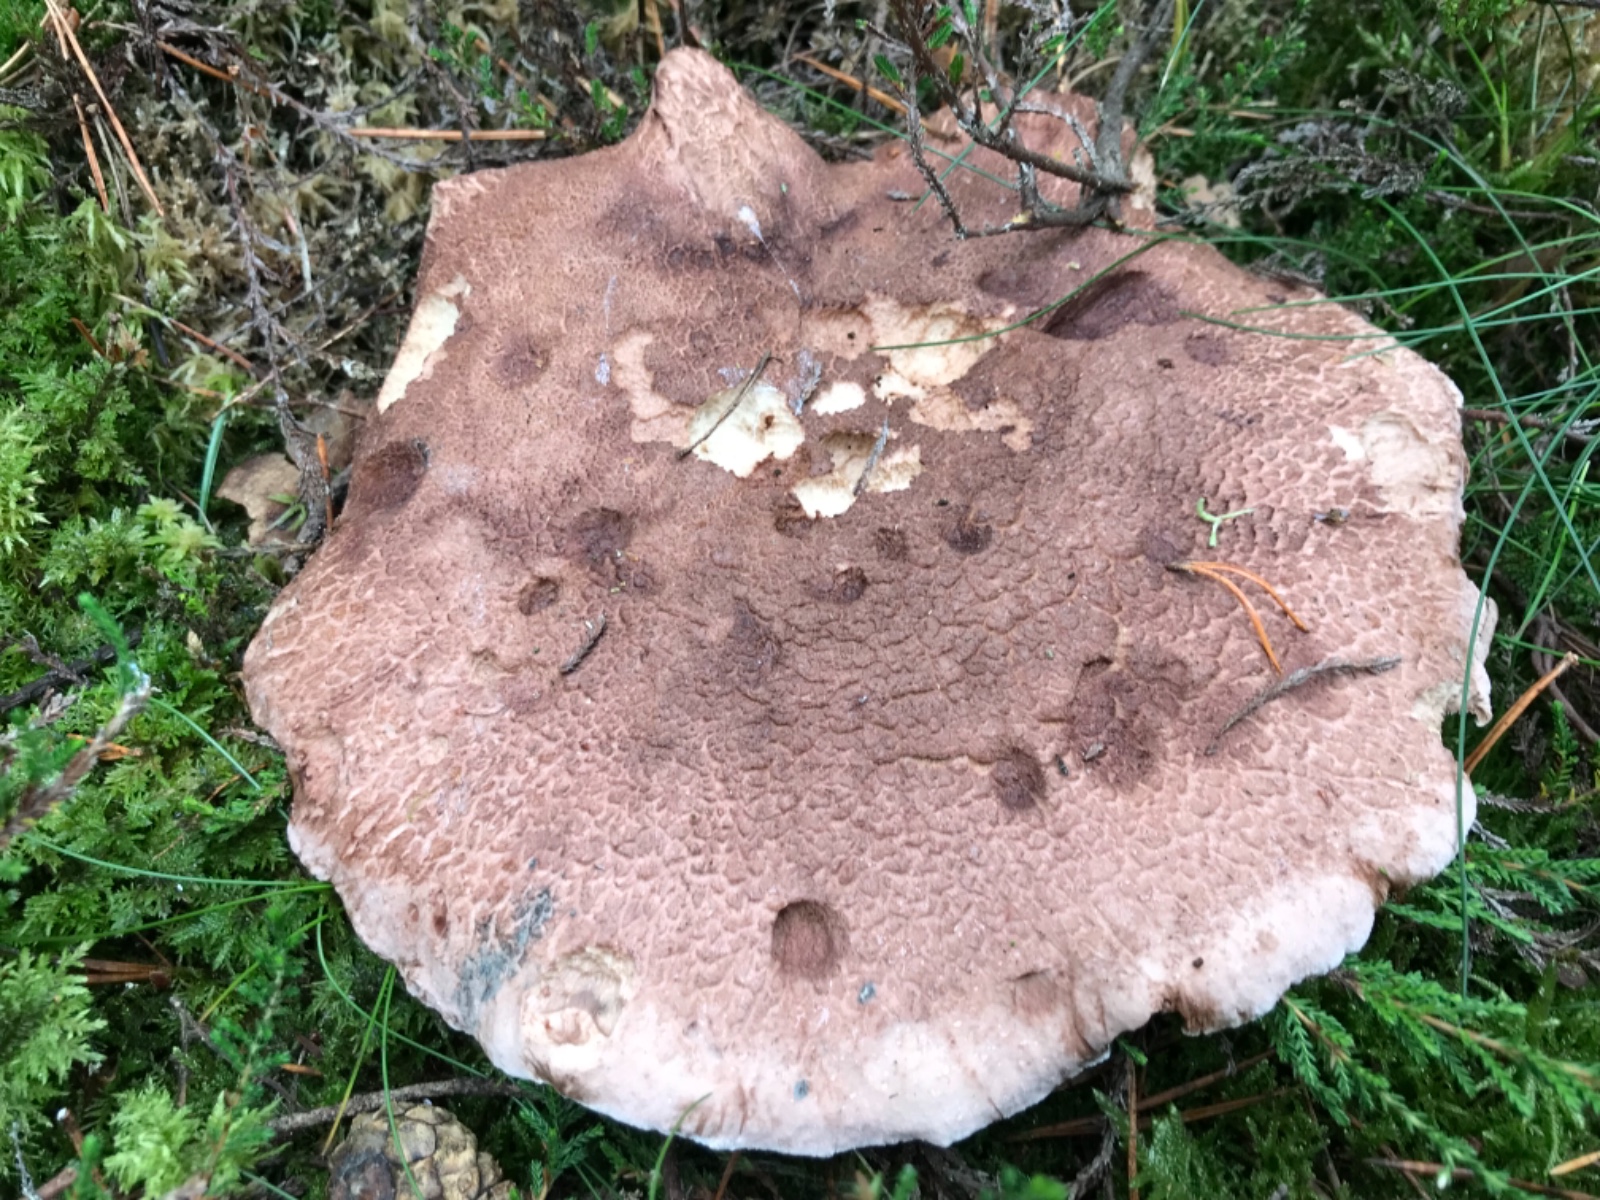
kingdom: Fungi
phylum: Basidiomycota
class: Agaricomycetes
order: Thelephorales
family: Bankeraceae
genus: Hydnellum
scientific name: Hydnellum scabrosum
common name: blåfodet korkpigsvamp
